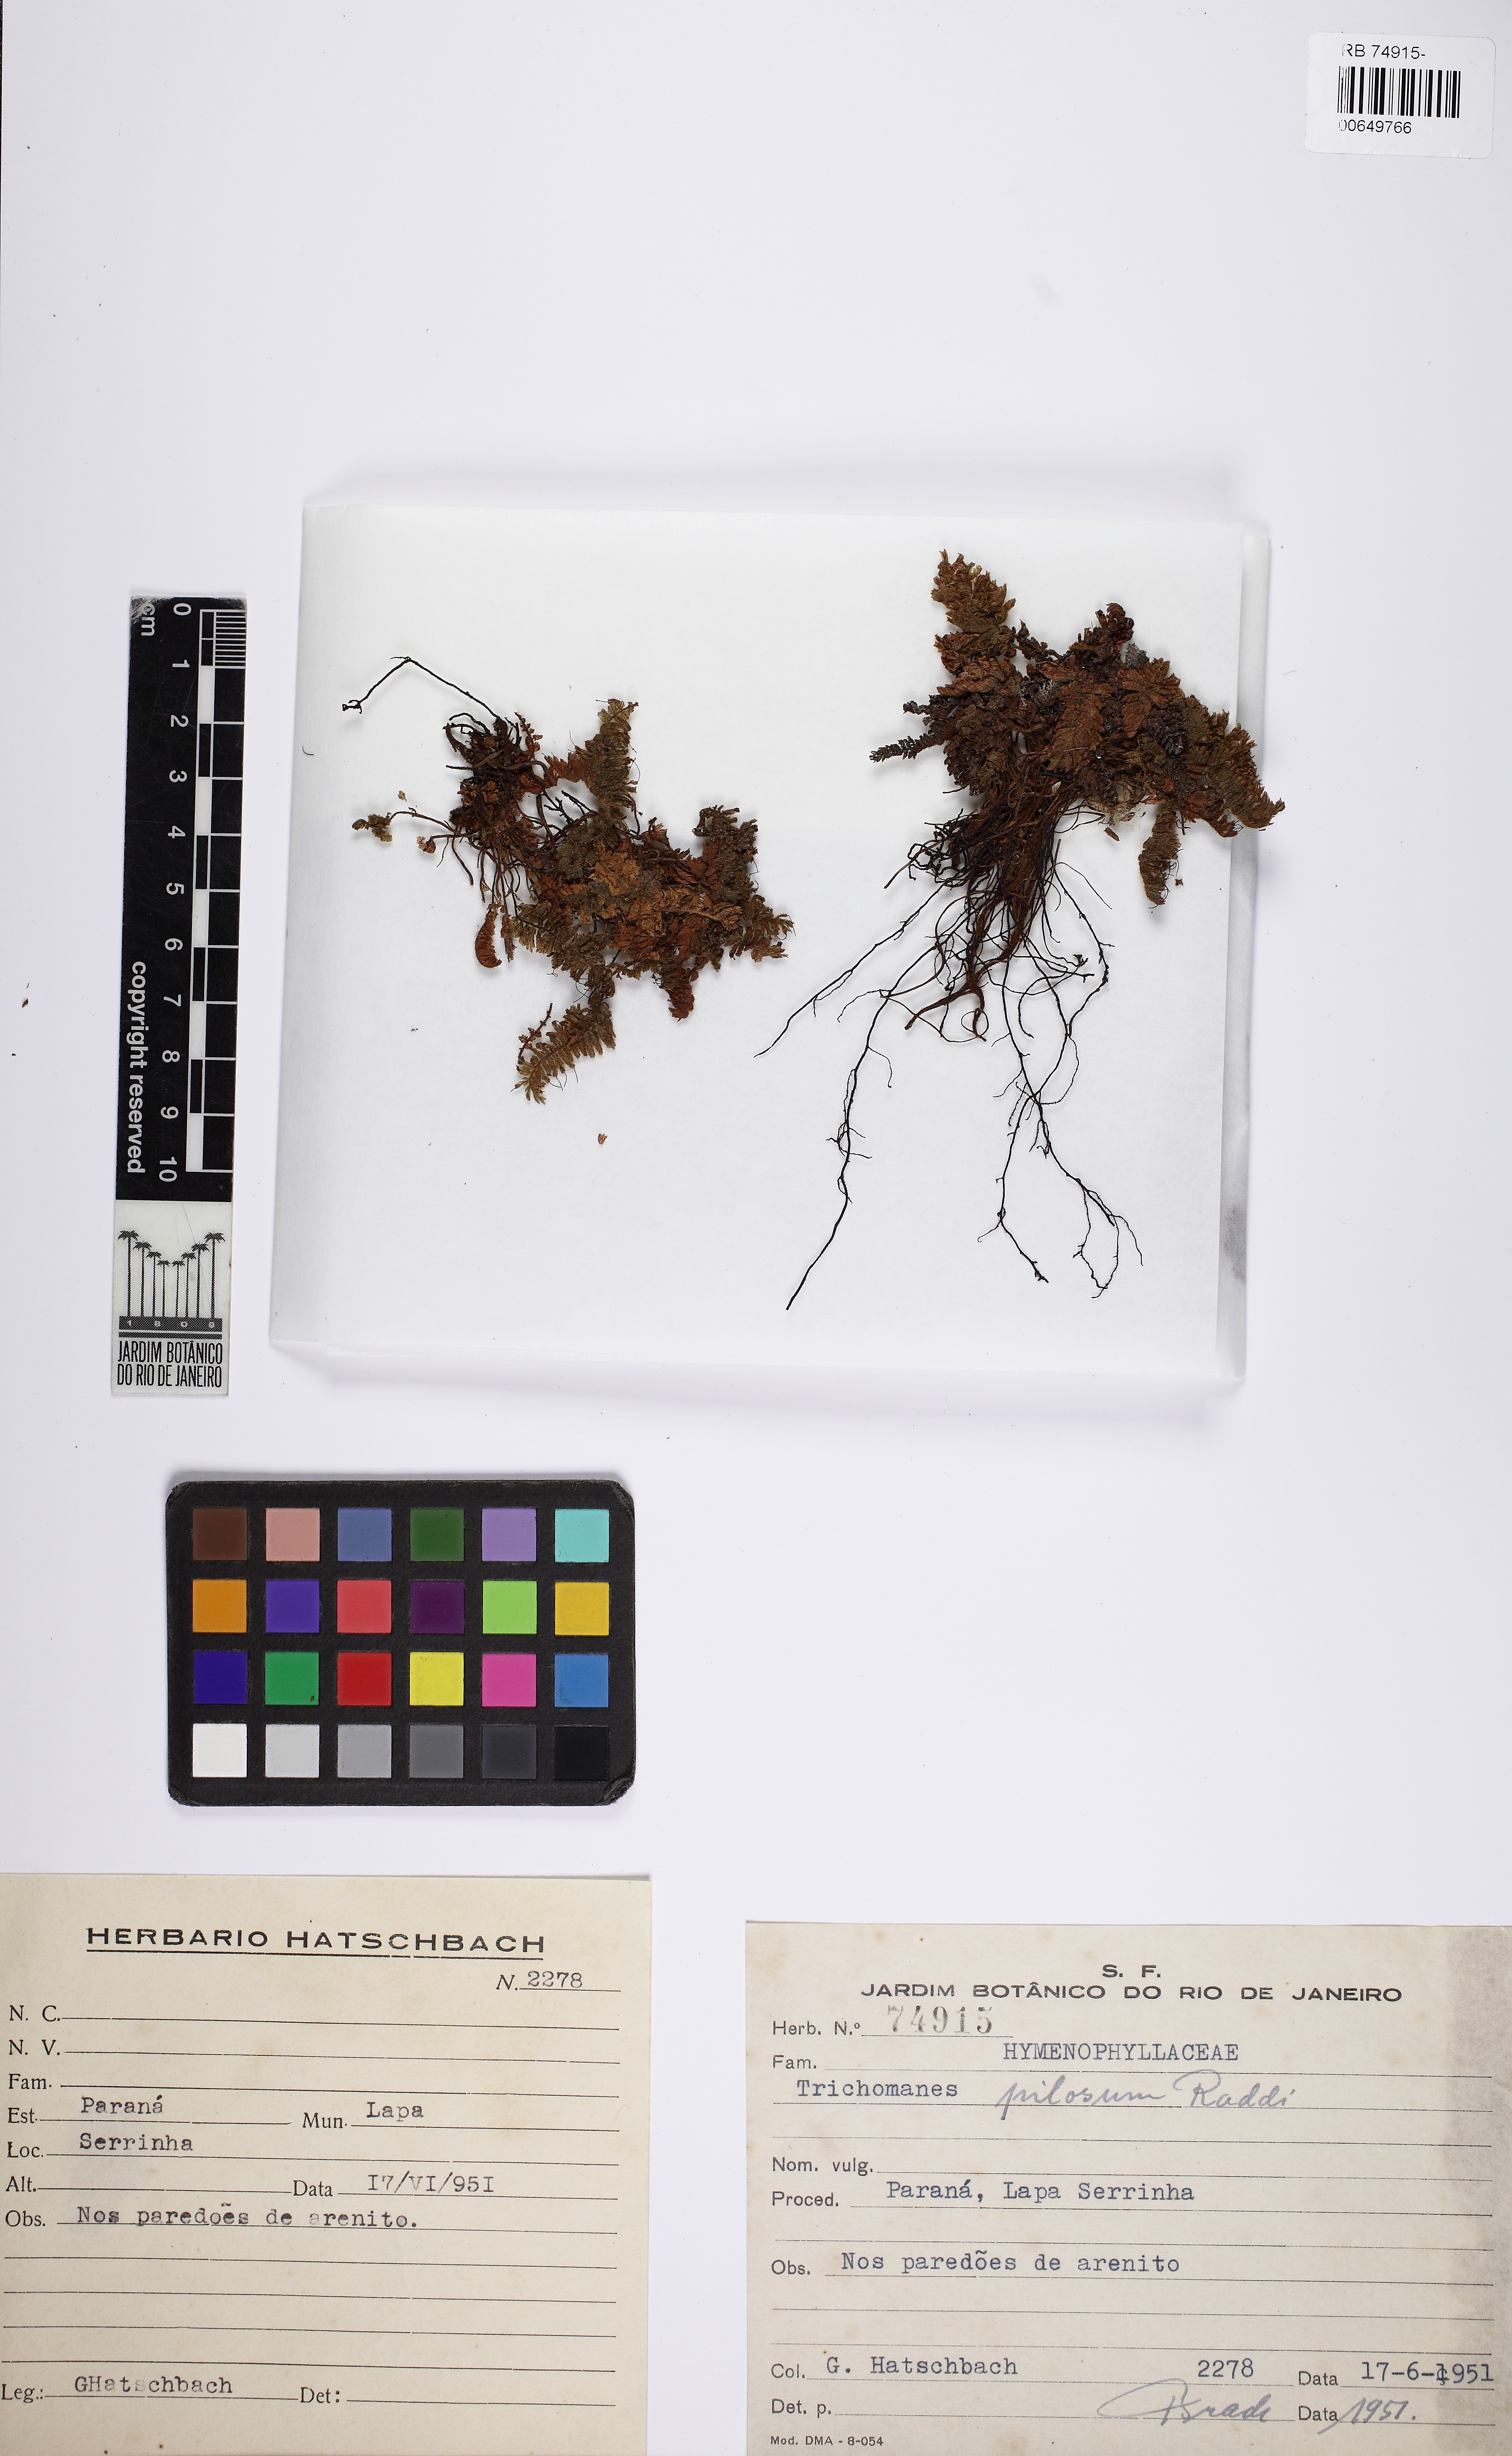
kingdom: Plantae
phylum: Tracheophyta
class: Polypodiopsida
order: Hymenophyllales
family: Hymenophyllaceae
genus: Trichomanes
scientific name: Trichomanes pilosum
